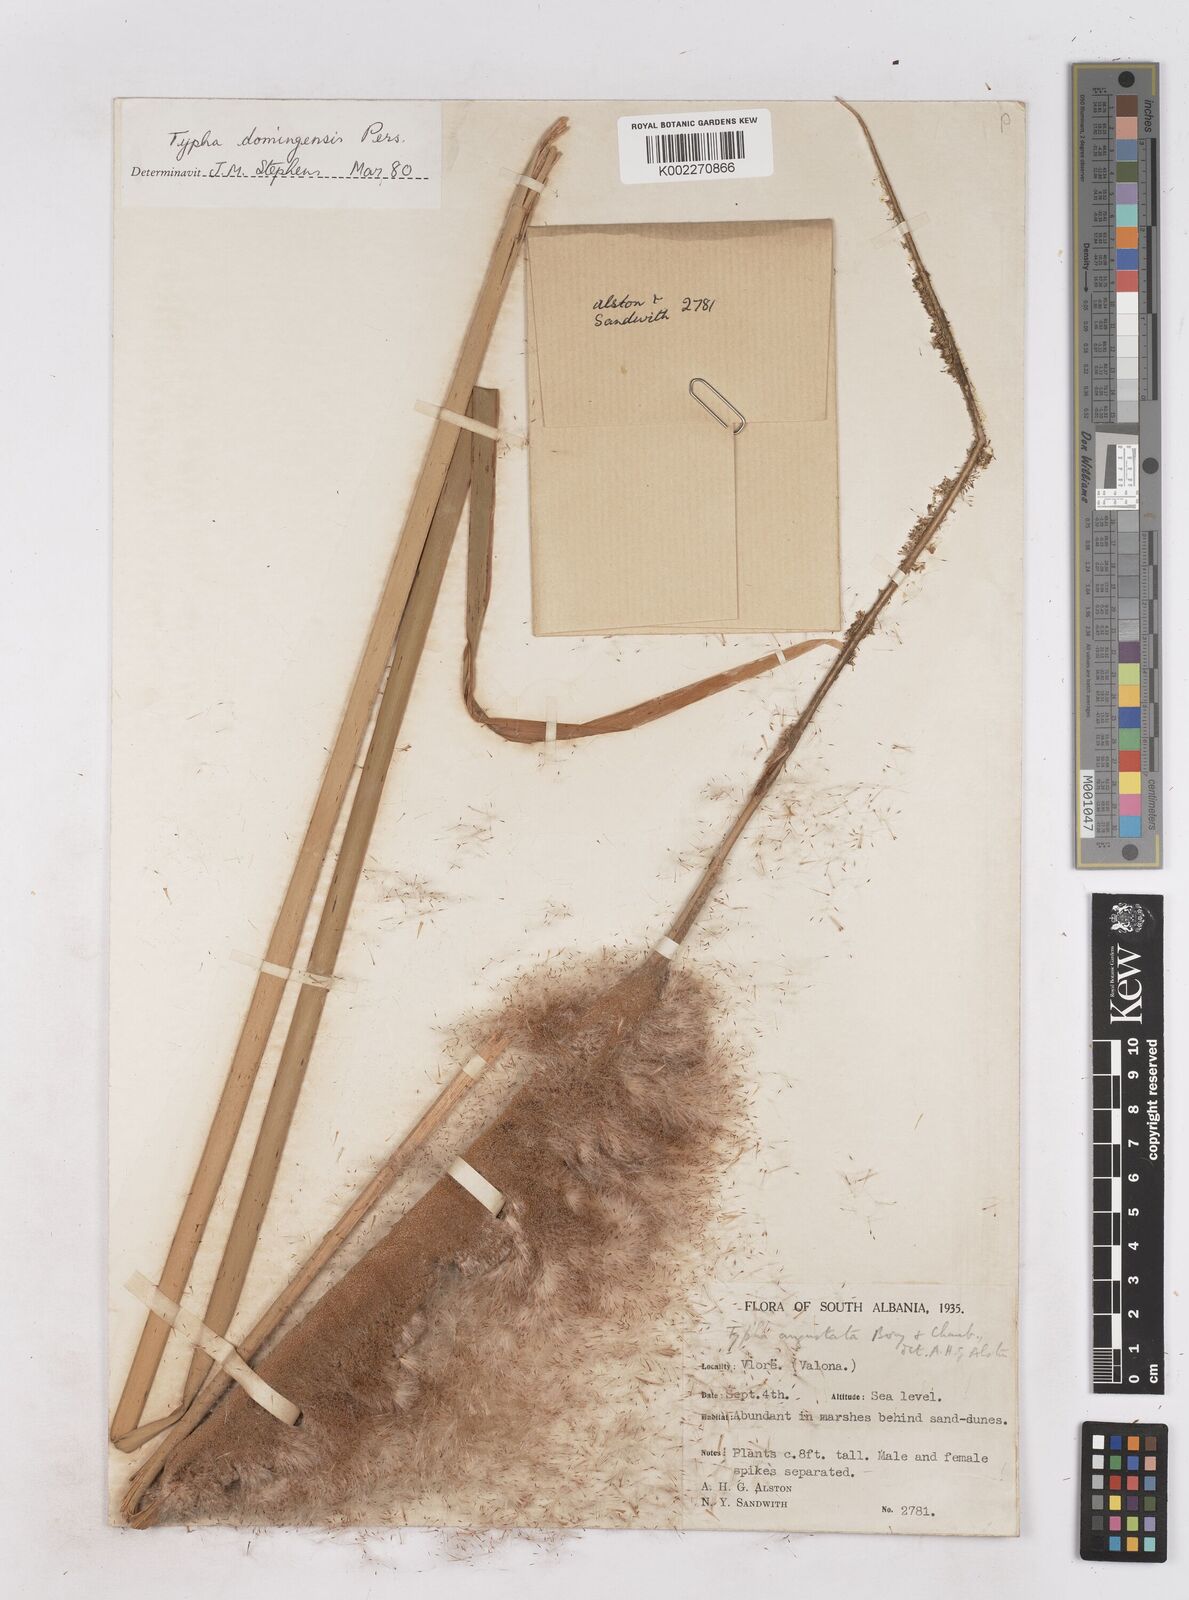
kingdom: Plantae
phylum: Tracheophyta
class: Liliopsida
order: Poales
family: Typhaceae
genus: Typha
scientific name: Typha domingensis
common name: Southern cattail
